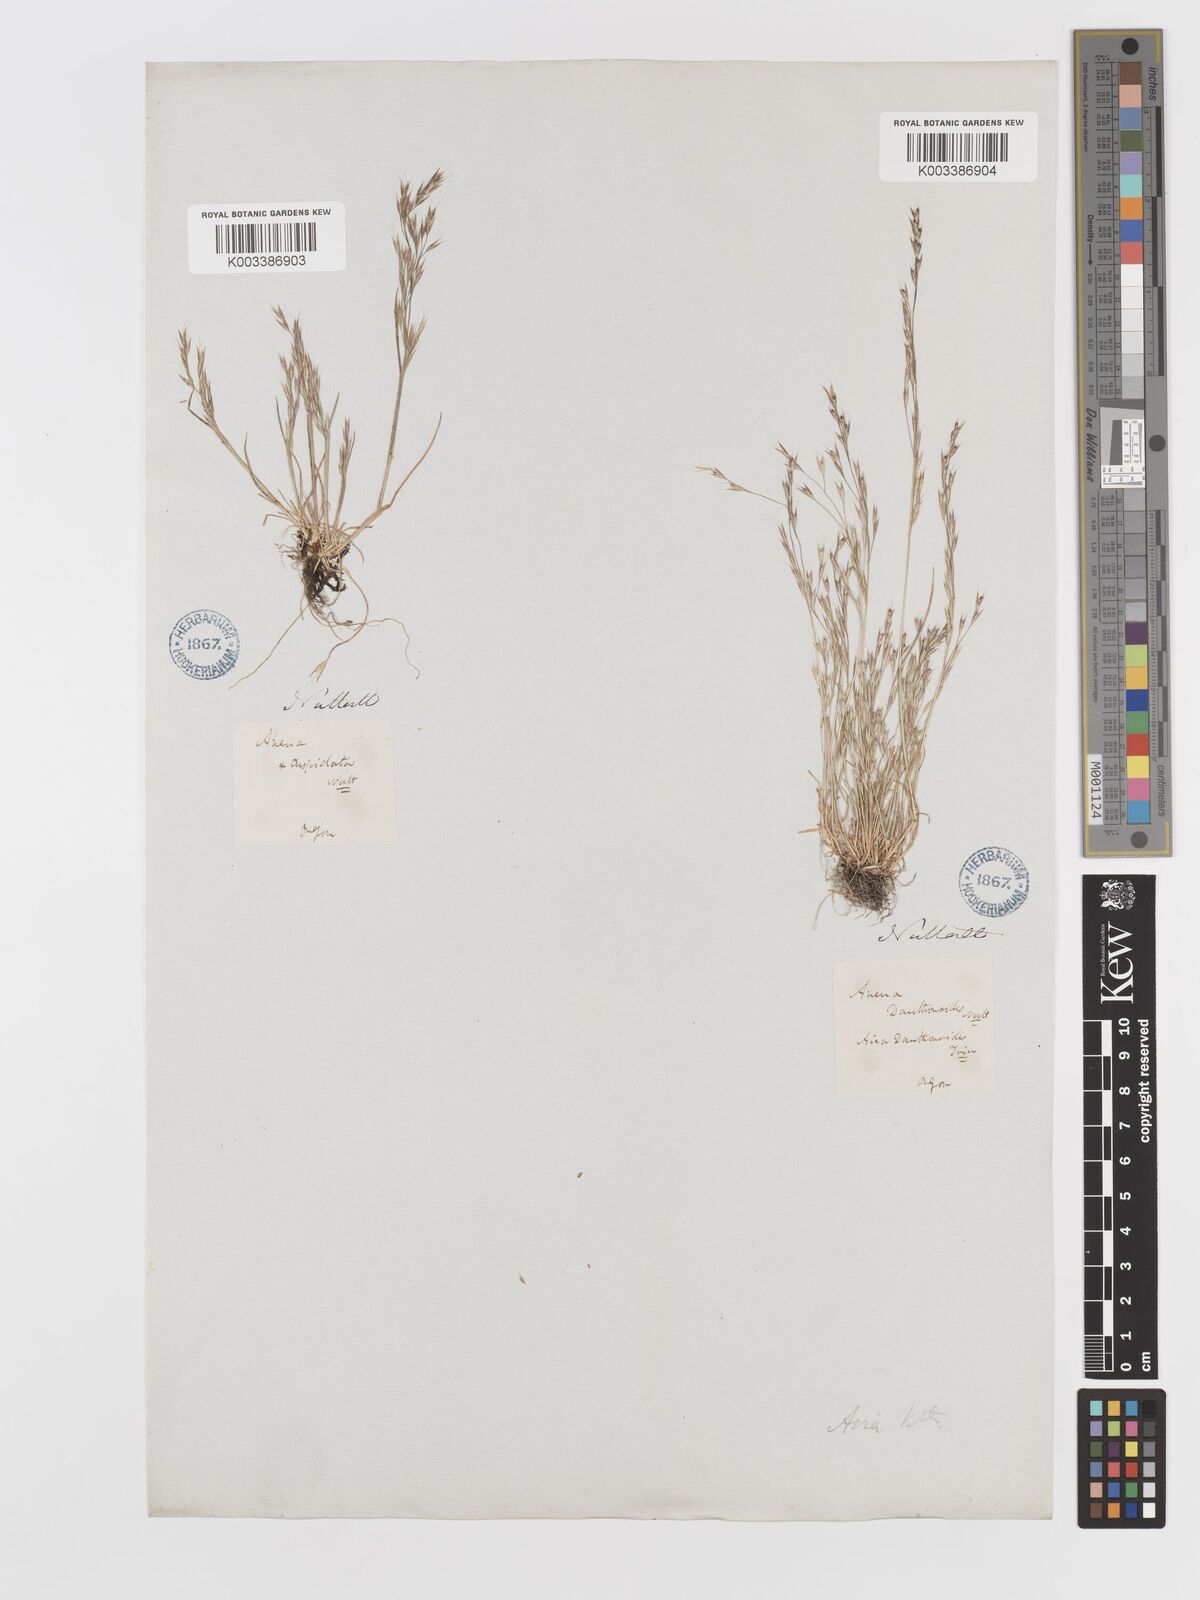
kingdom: Plantae
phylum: Tracheophyta
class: Liliopsida
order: Poales
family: Poaceae
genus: Deschampsia
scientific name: Deschampsia danthonioides
